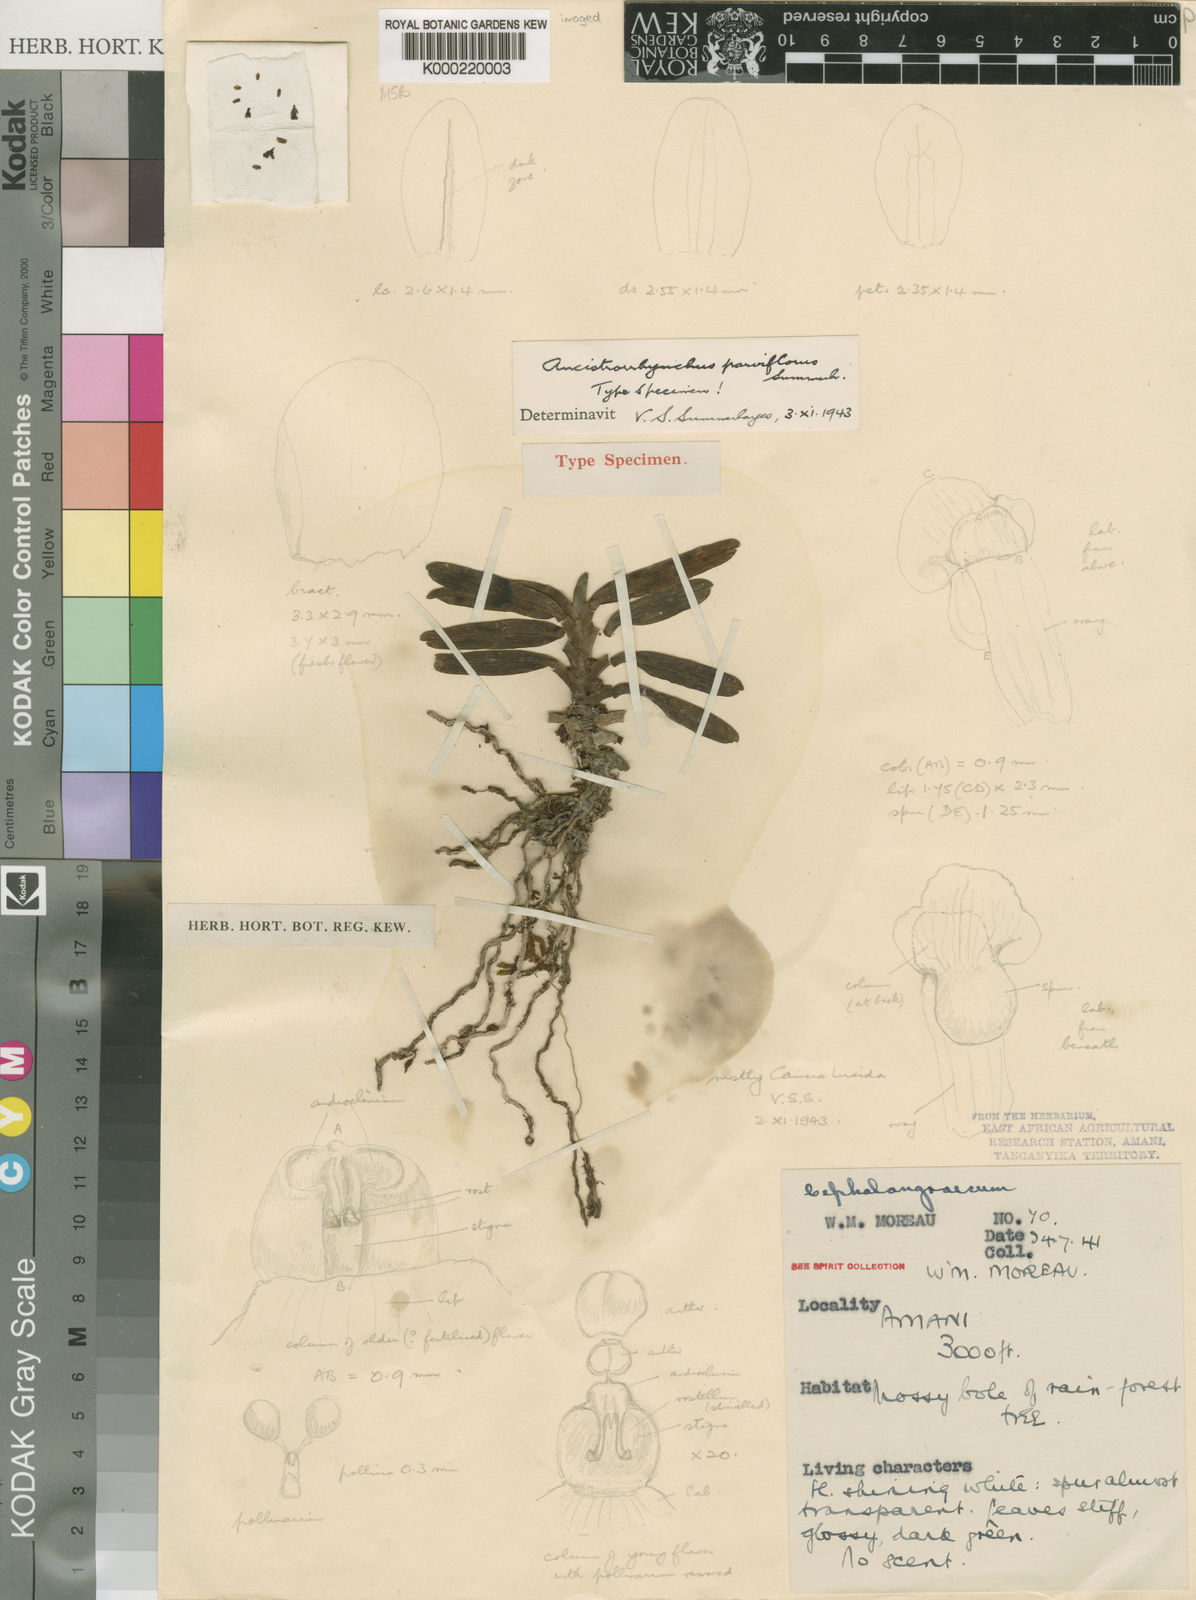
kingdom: Plantae
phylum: Tracheophyta
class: Liliopsida
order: Asparagales
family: Orchidaceae
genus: Ancistrorhynchus
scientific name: Ancistrorhynchus parviflorus
